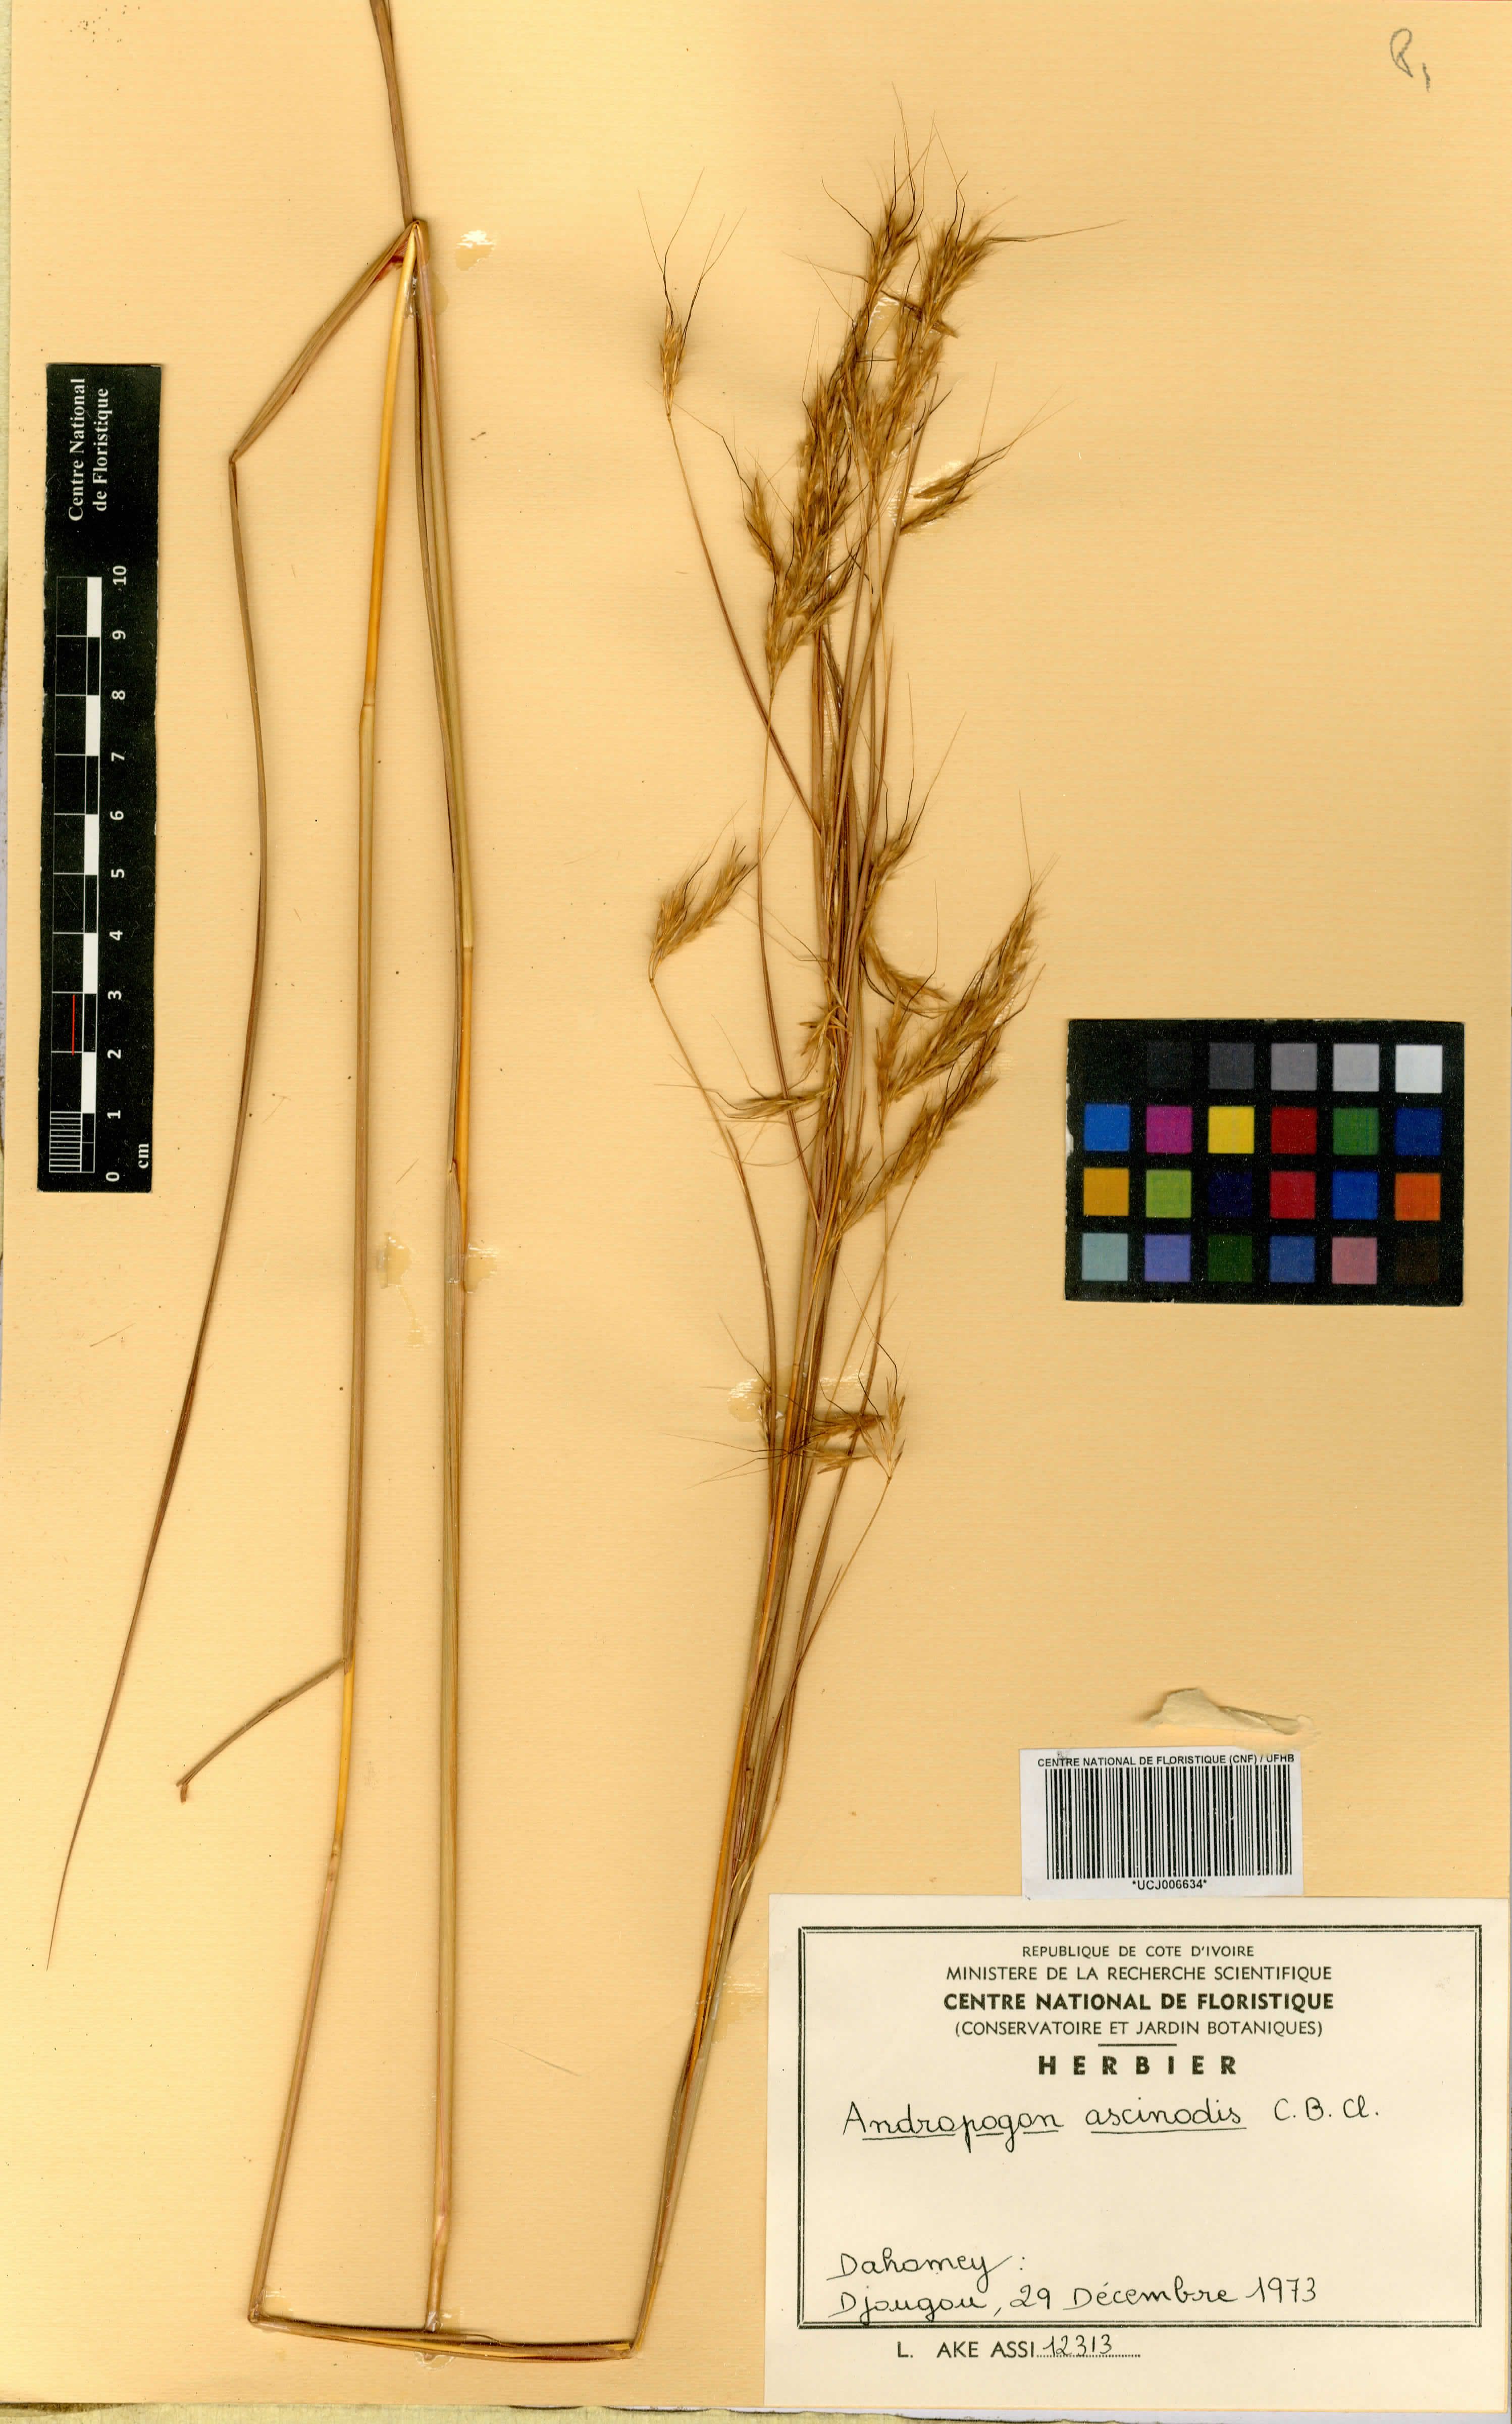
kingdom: Plantae
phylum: Tracheophyta
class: Liliopsida
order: Poales
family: Poaceae
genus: Andropogon
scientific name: Andropogon chinensis
